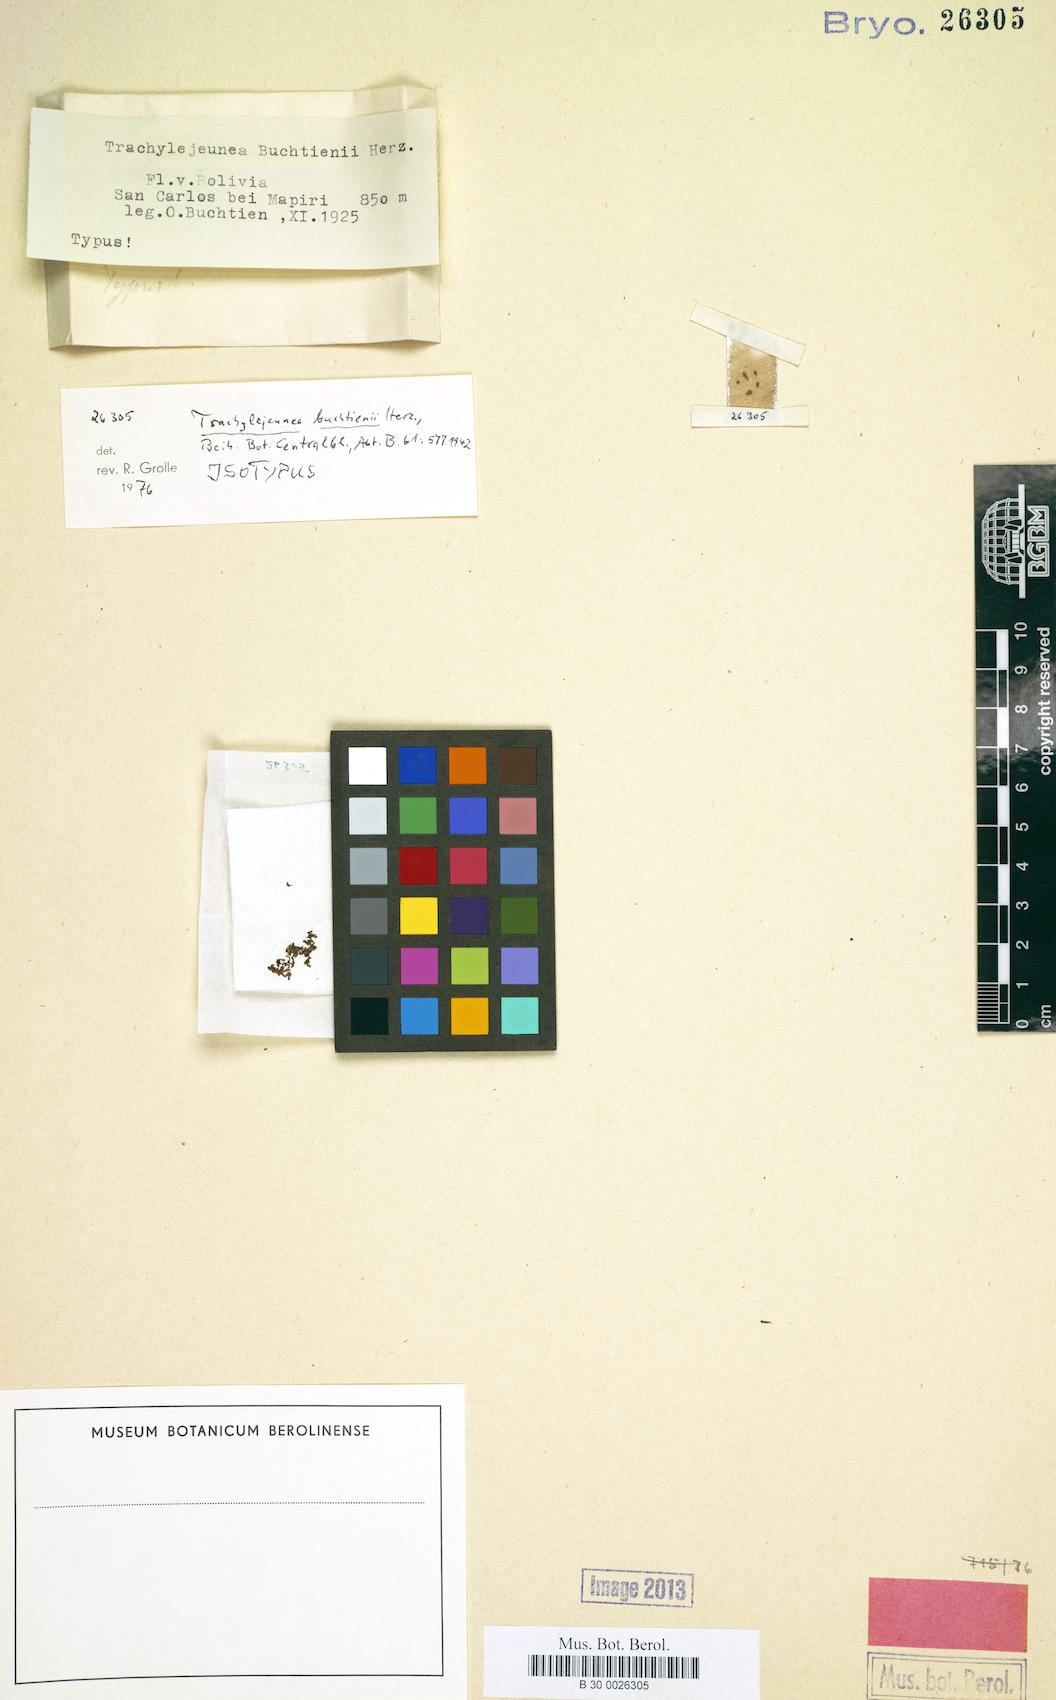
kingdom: Plantae
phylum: Marchantiophyta
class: Jungermanniopsida
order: Porellales
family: Lejeuneaceae
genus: Xylolejeunea
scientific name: Xylolejeunea crenata
